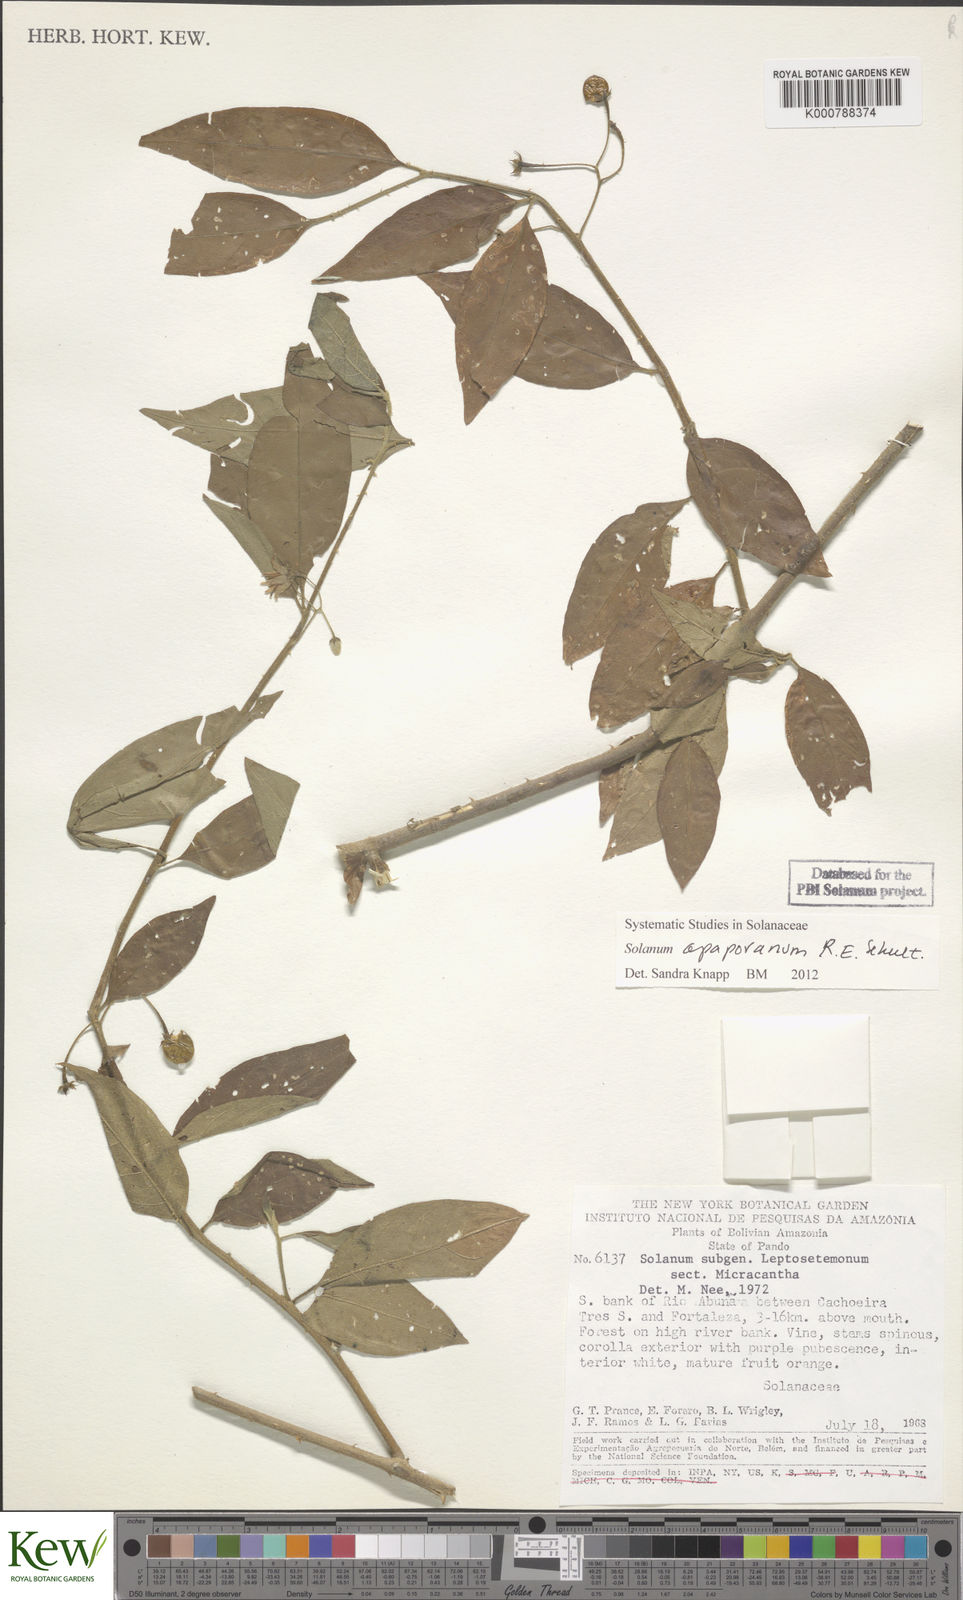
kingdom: Plantae
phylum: Tracheophyta
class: Magnoliopsida
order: Solanales
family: Solanaceae
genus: Solanum
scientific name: Solanum apaporanum
